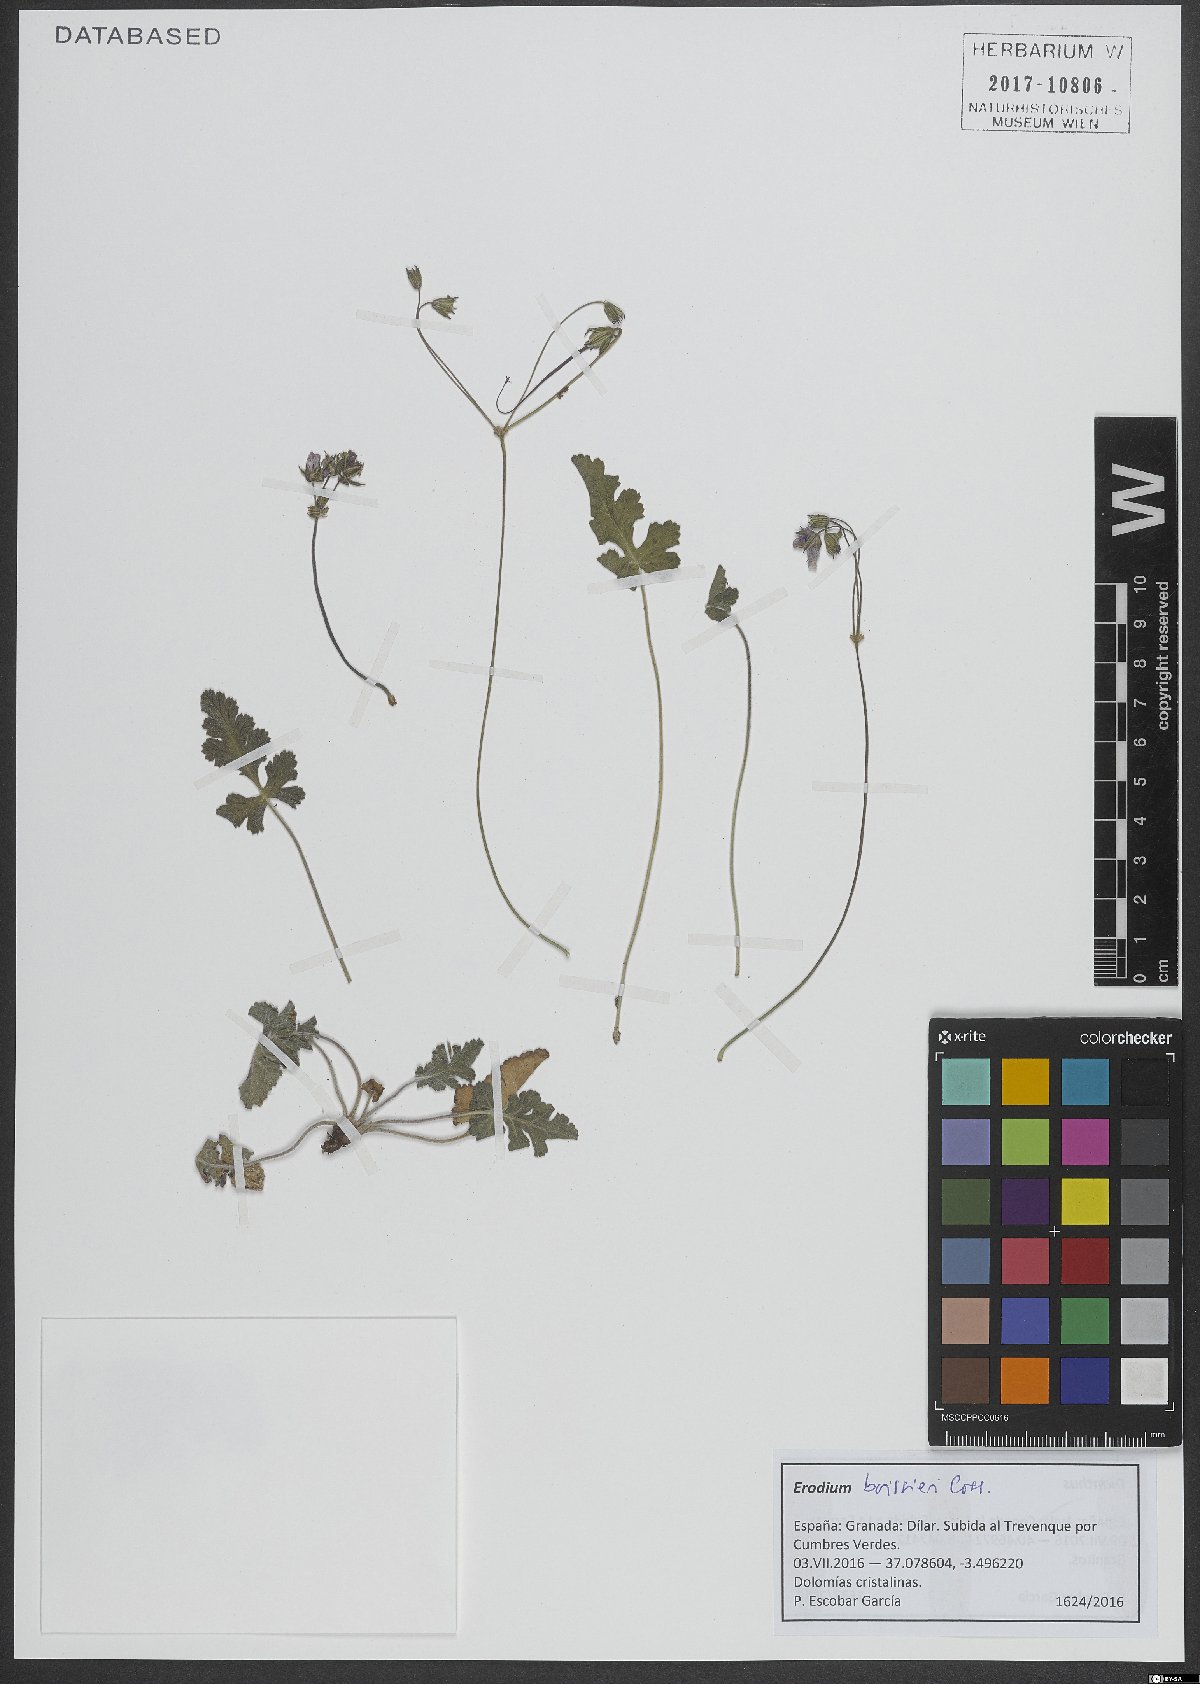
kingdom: Plantae
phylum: Tracheophyta
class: Magnoliopsida
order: Geraniales
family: Geraniaceae
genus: Erodium
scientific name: Erodium boissieri
